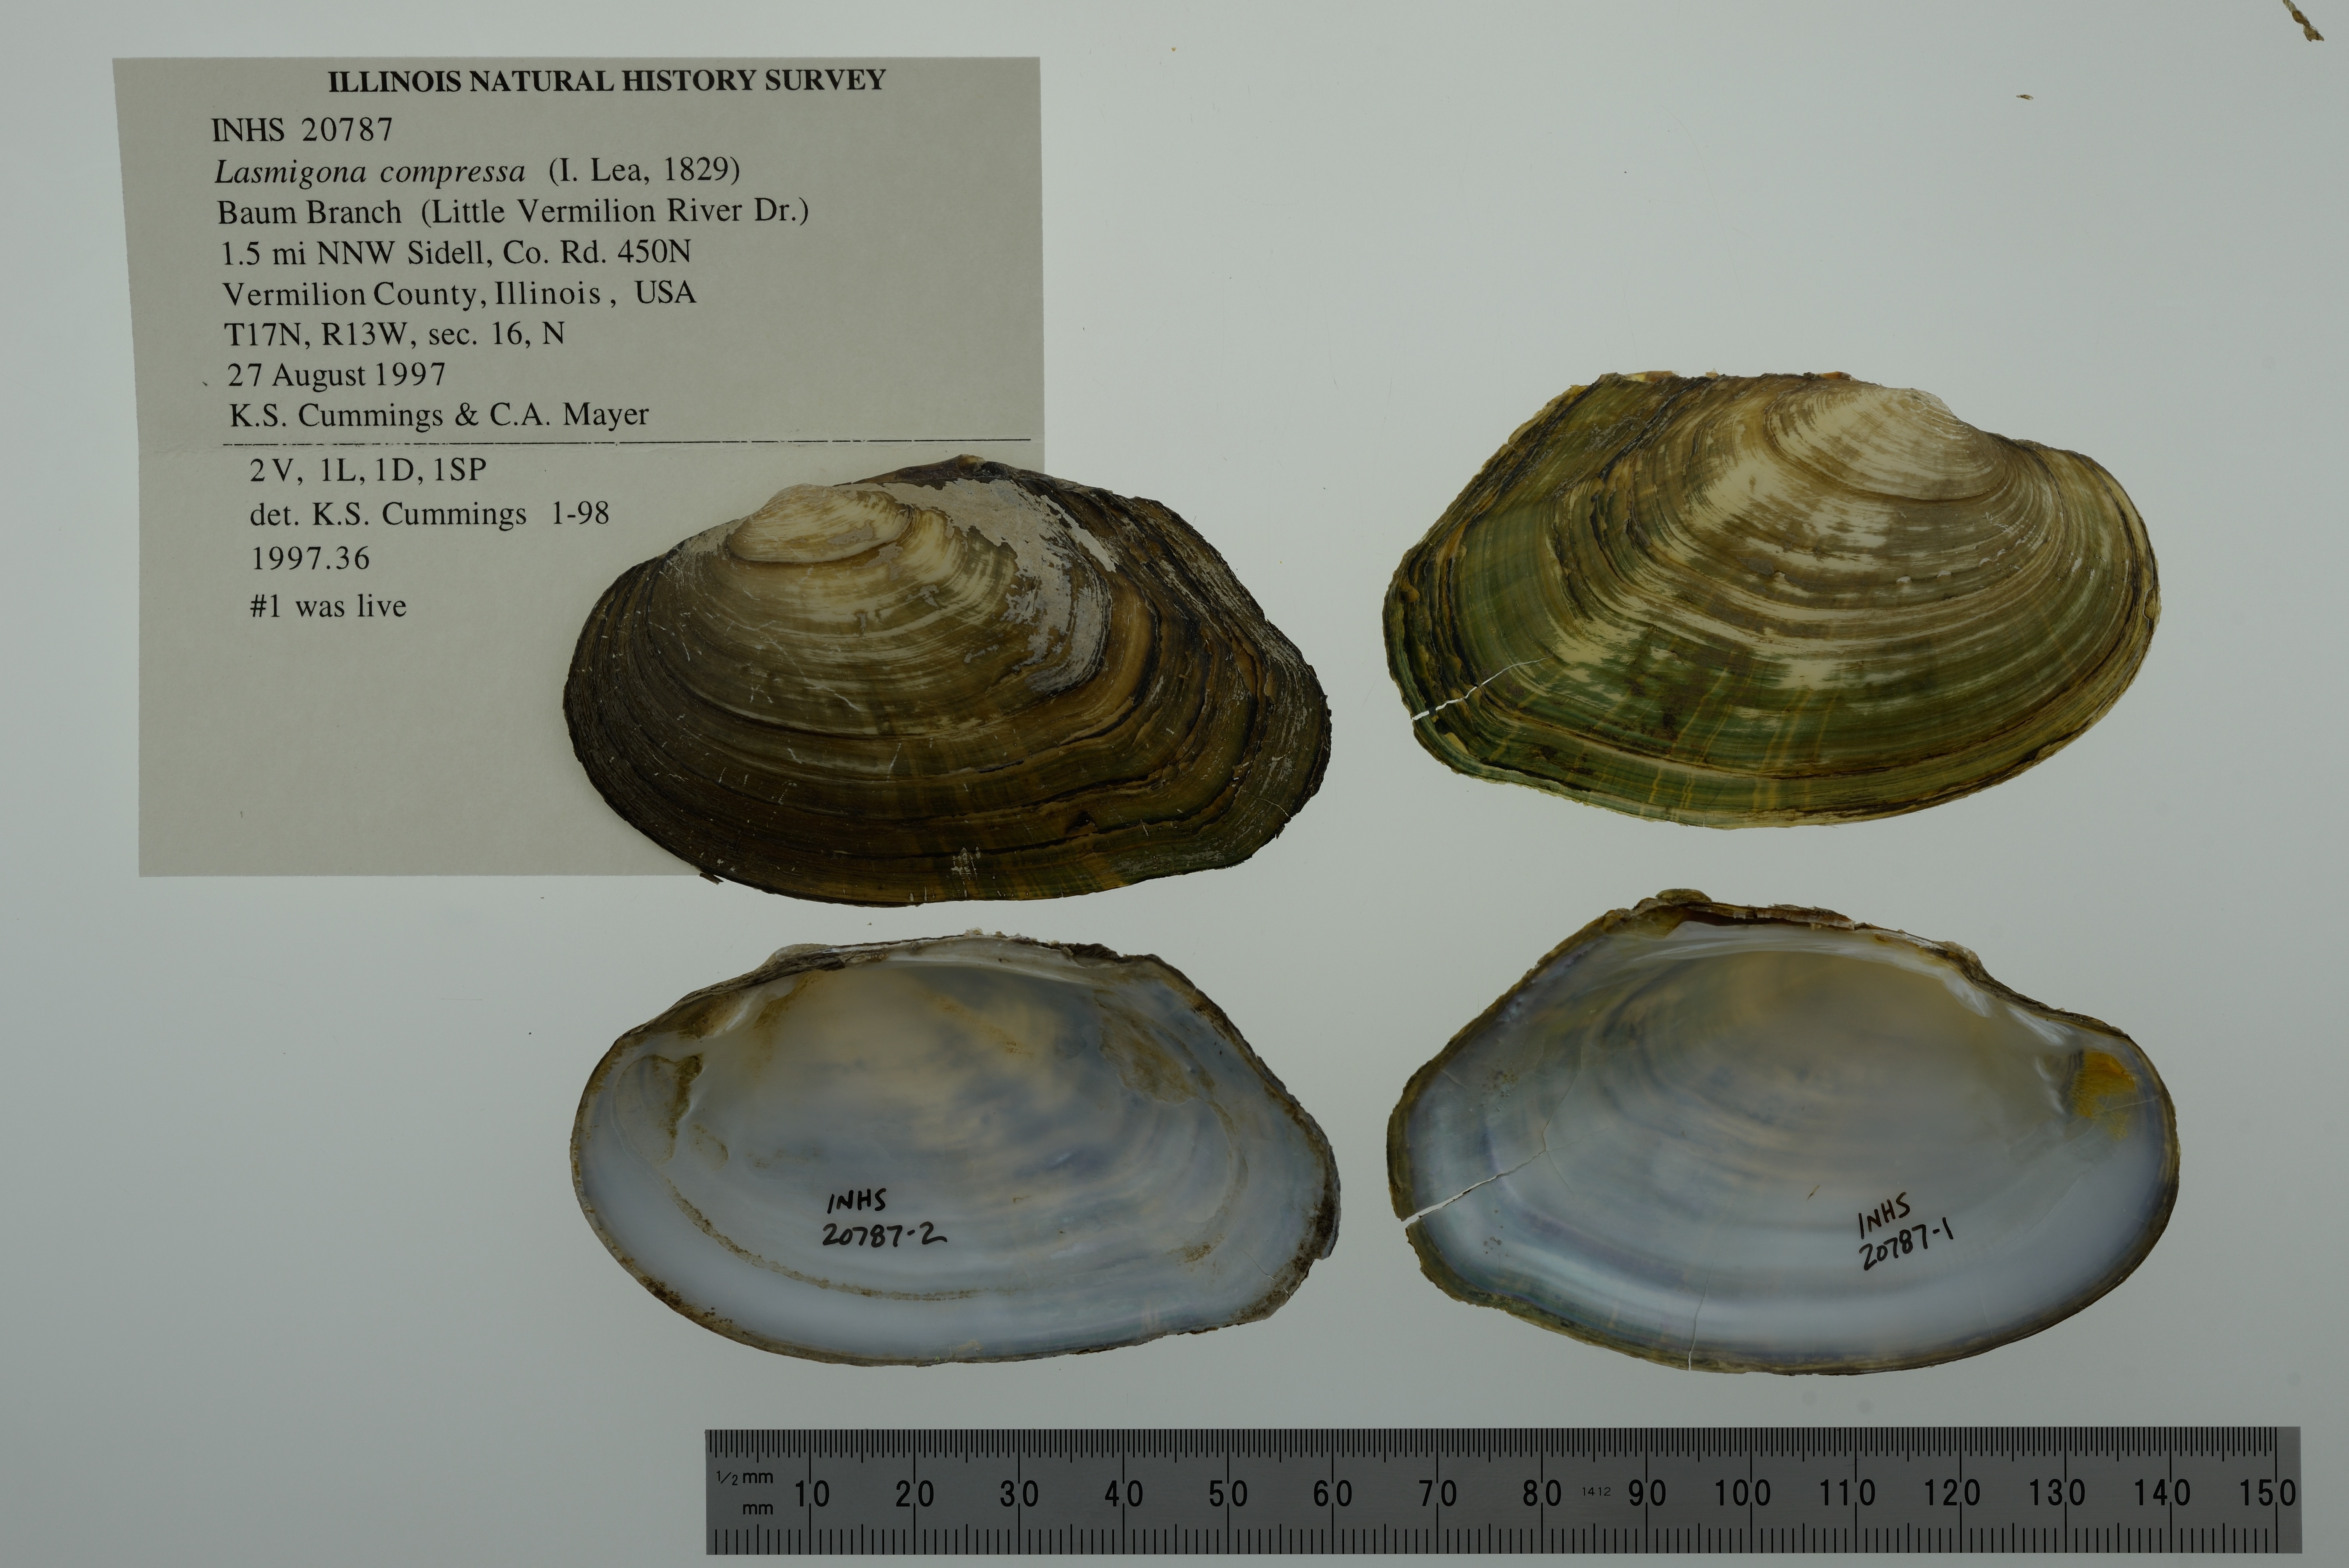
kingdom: Animalia
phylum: Mollusca
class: Bivalvia
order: Unionida
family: Unionidae
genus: Lasmigona
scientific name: Lasmigona compressa
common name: Creek heelsplitter
